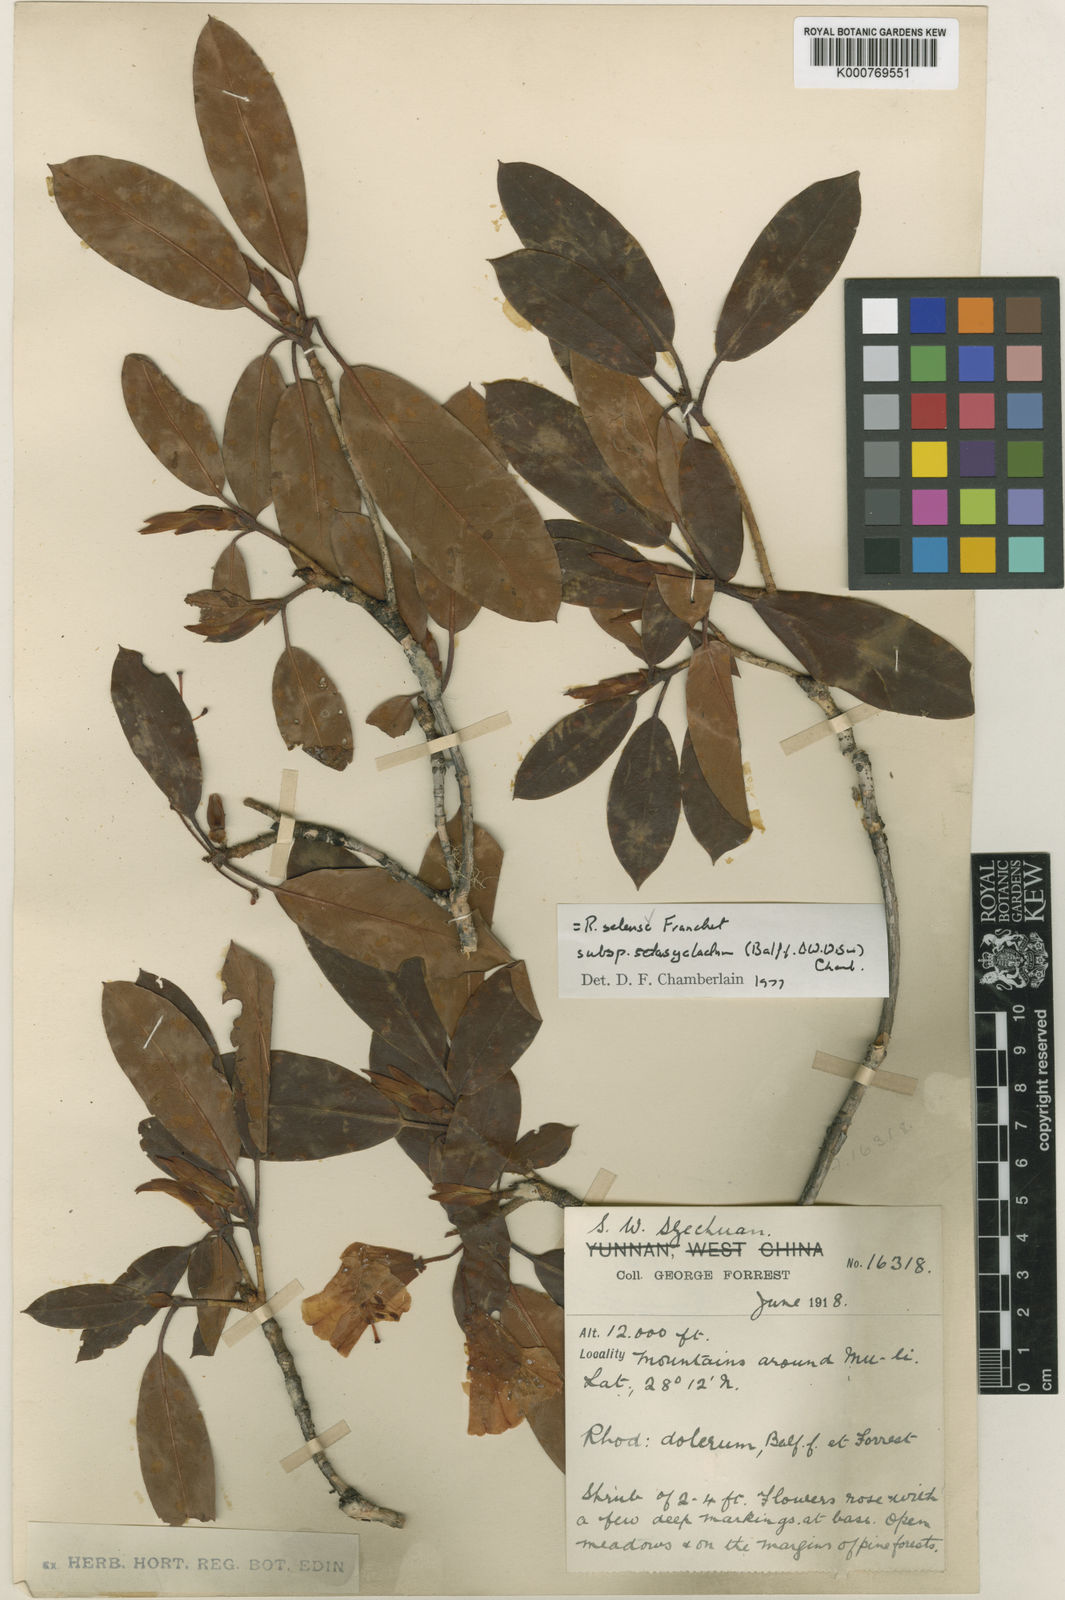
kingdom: Plantae
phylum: Tracheophyta
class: Magnoliopsida
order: Ericales
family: Ericaceae
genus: Rhododendron
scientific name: Rhododendron selense
